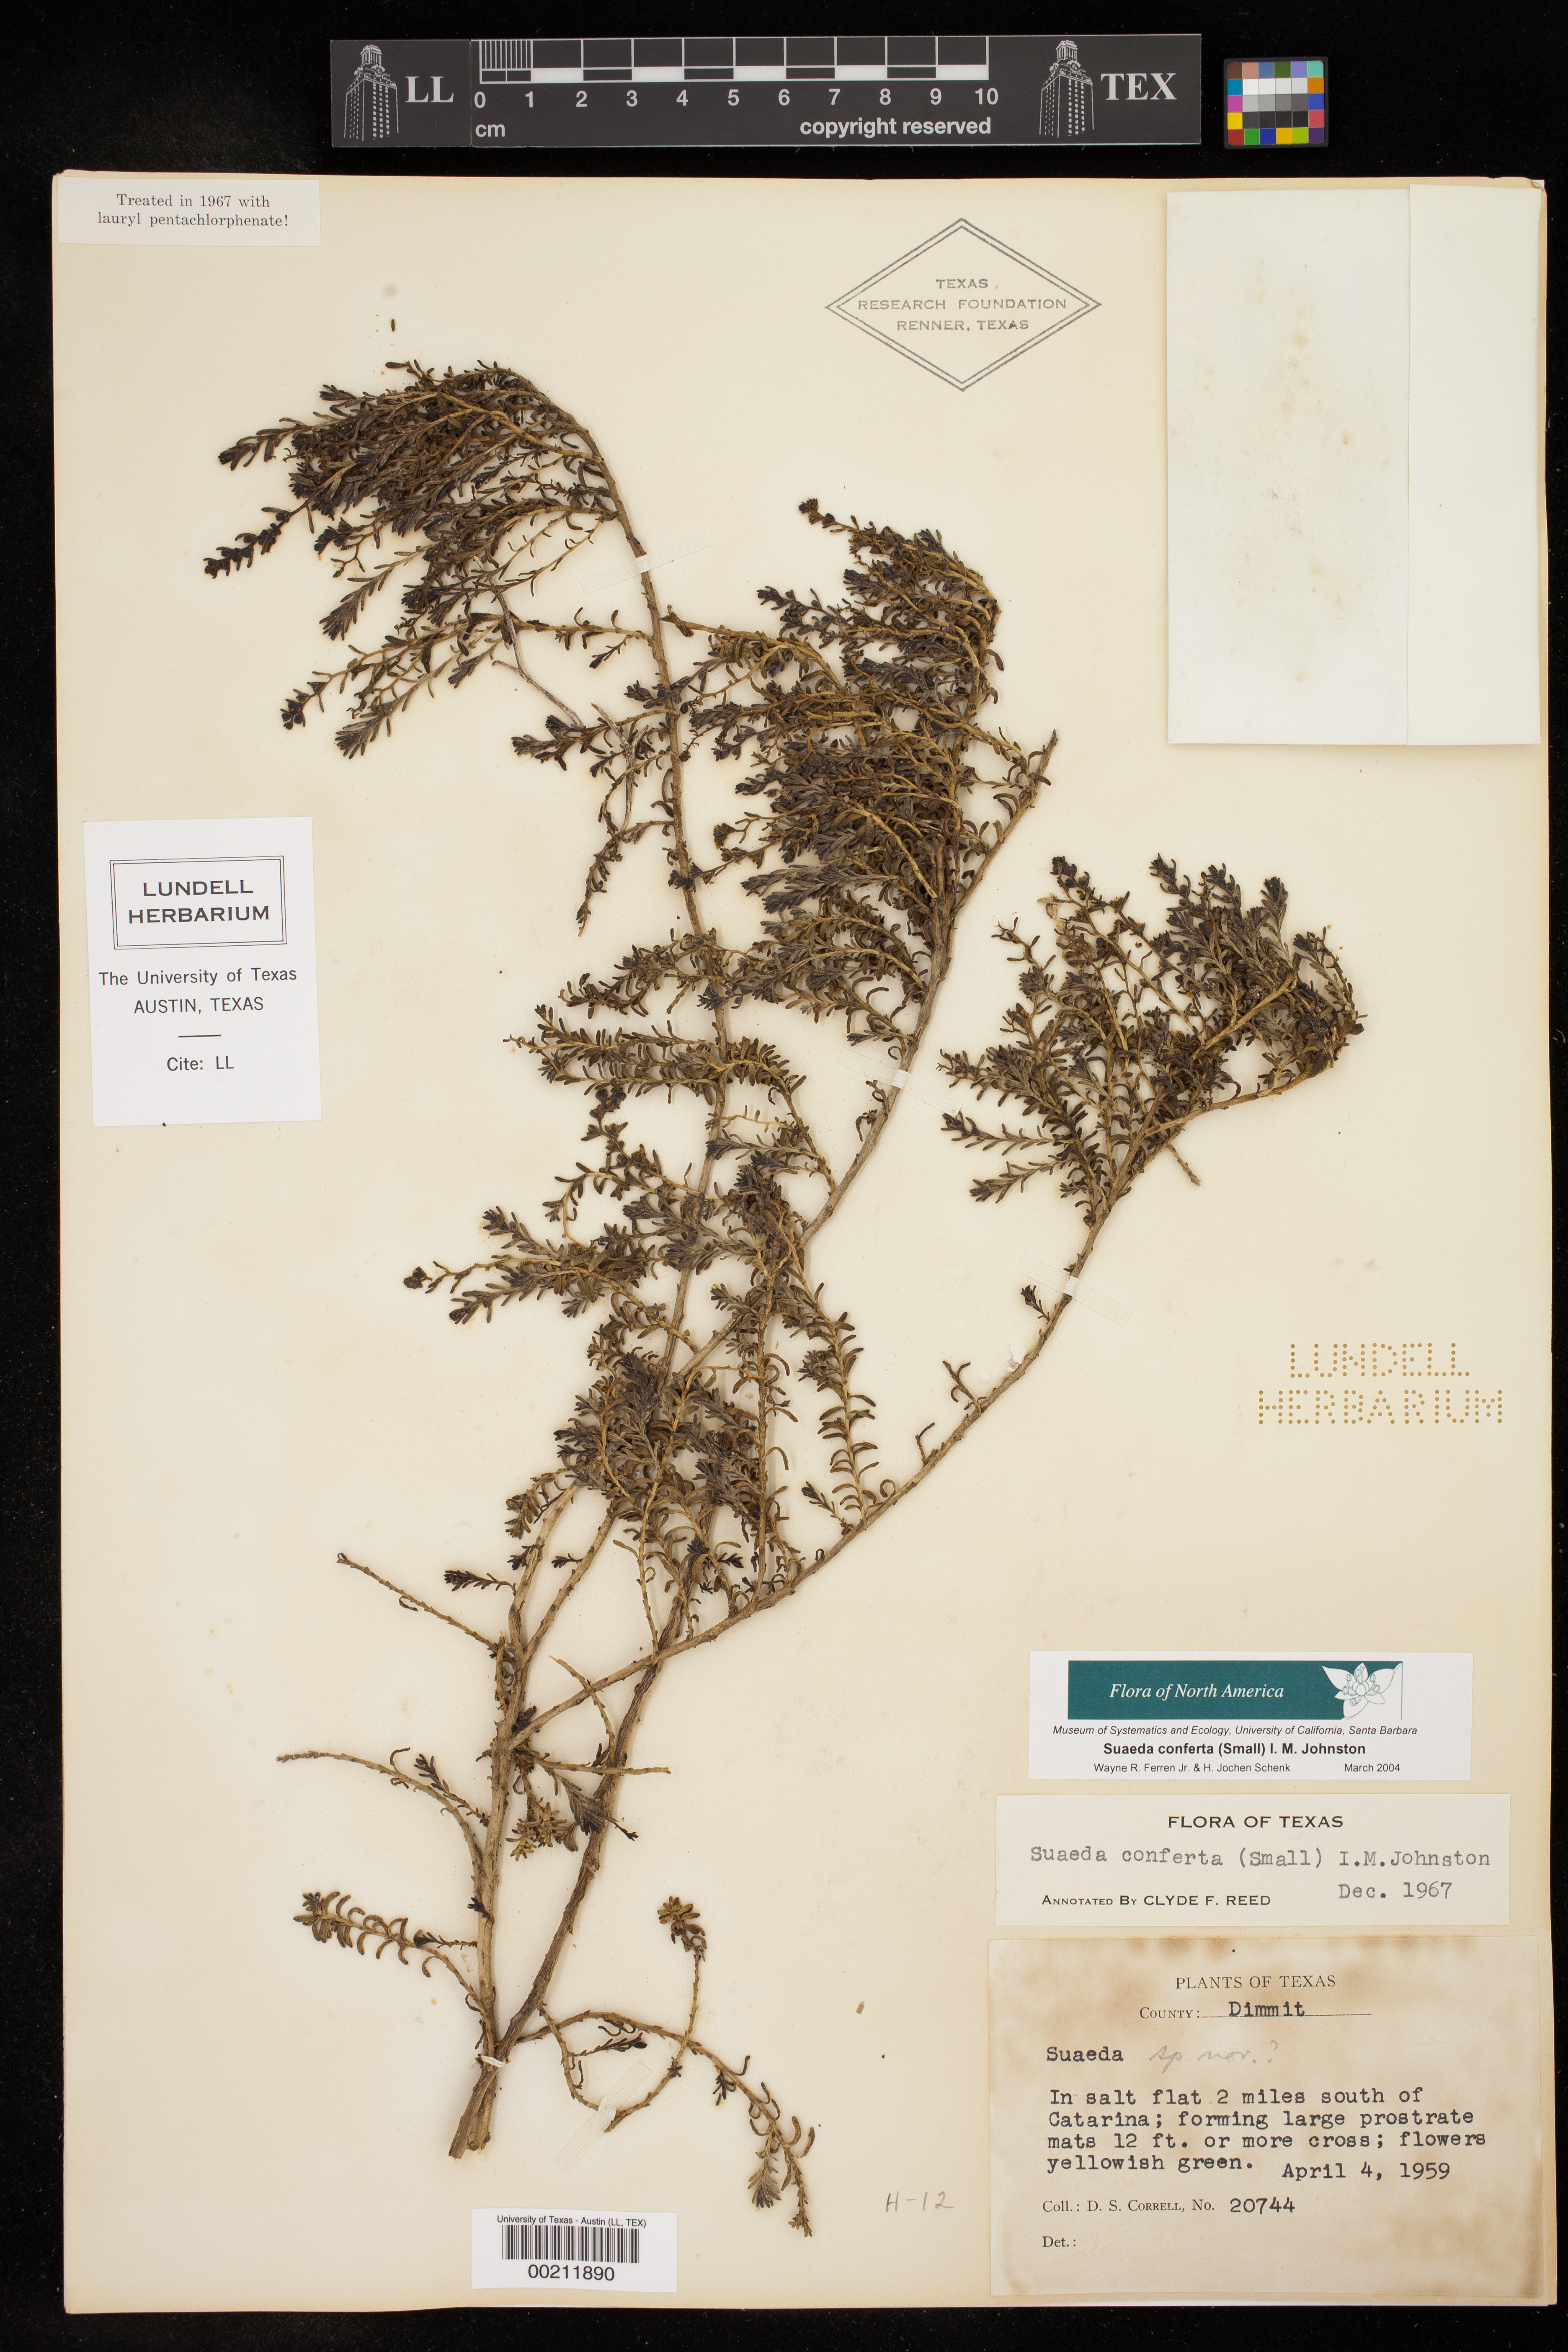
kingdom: Plantae
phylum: Tracheophyta
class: Magnoliopsida
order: Caryophyllales
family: Amaranthaceae
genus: Suaeda
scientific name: Suaeda conferta
